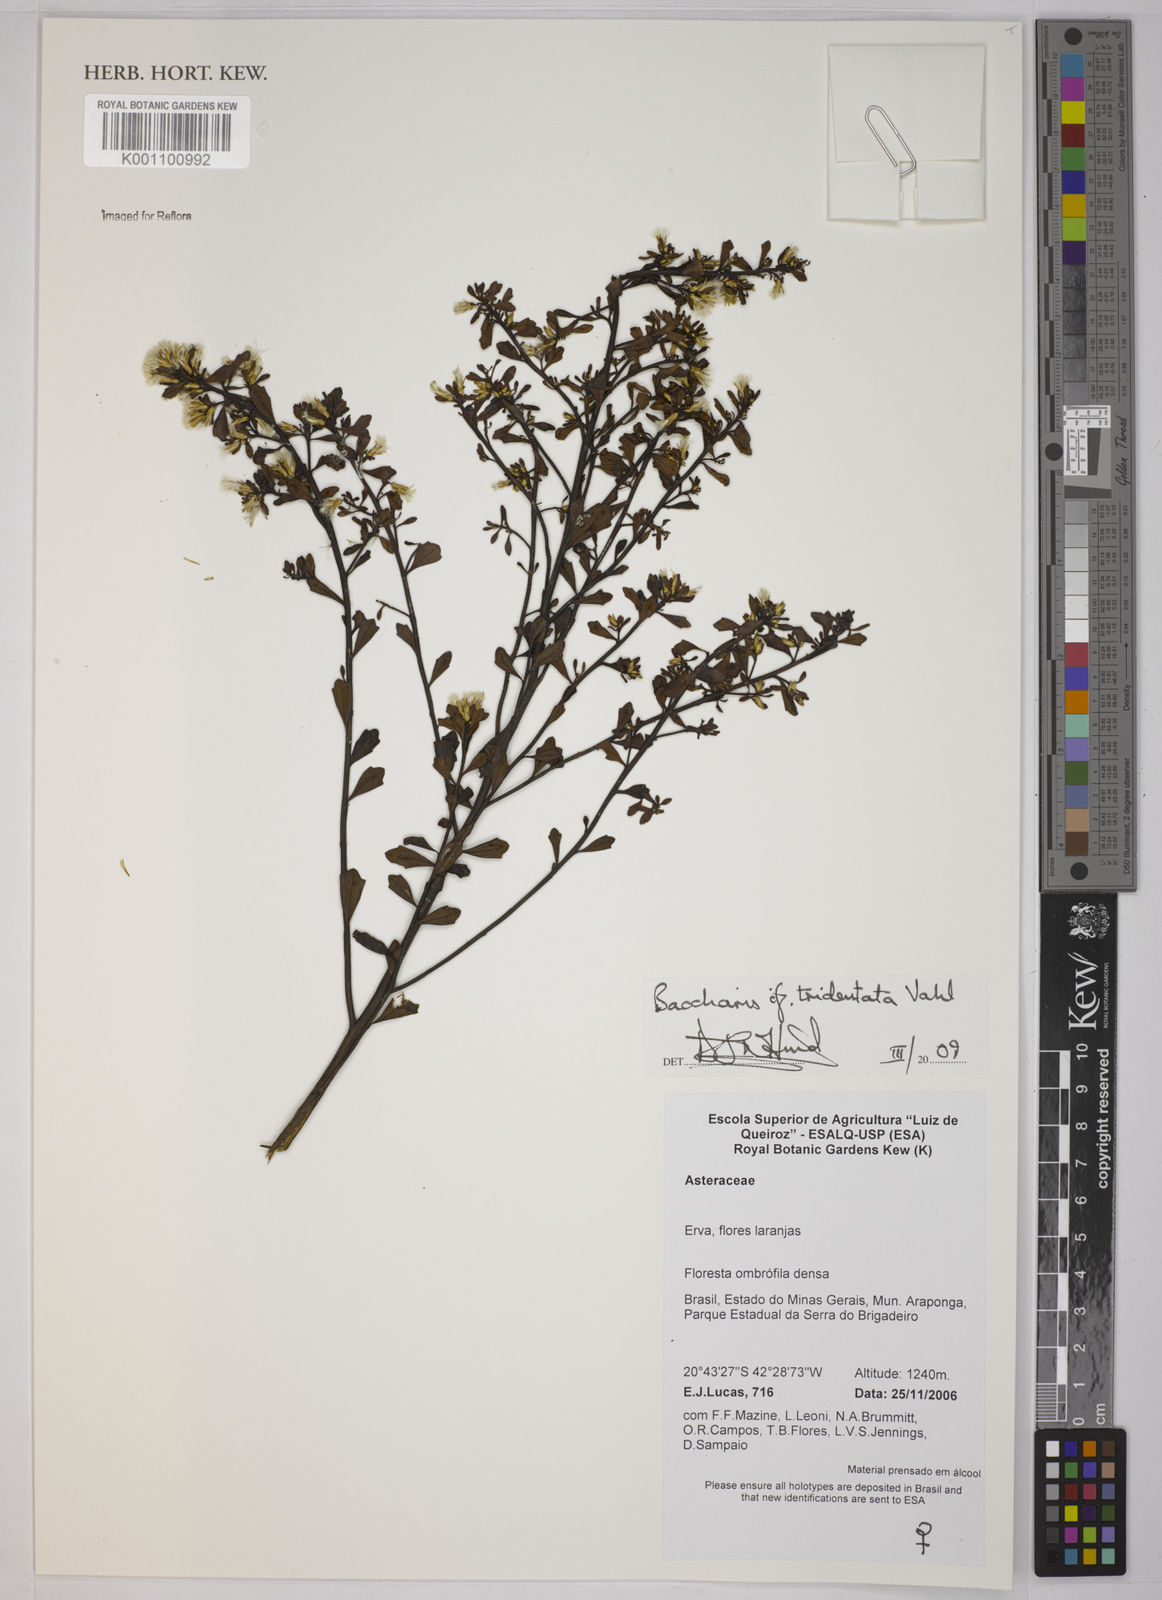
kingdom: Plantae
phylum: Tracheophyta
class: Magnoliopsida
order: Asterales
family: Asteraceae
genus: Baccharis
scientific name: Baccharis tridentata
